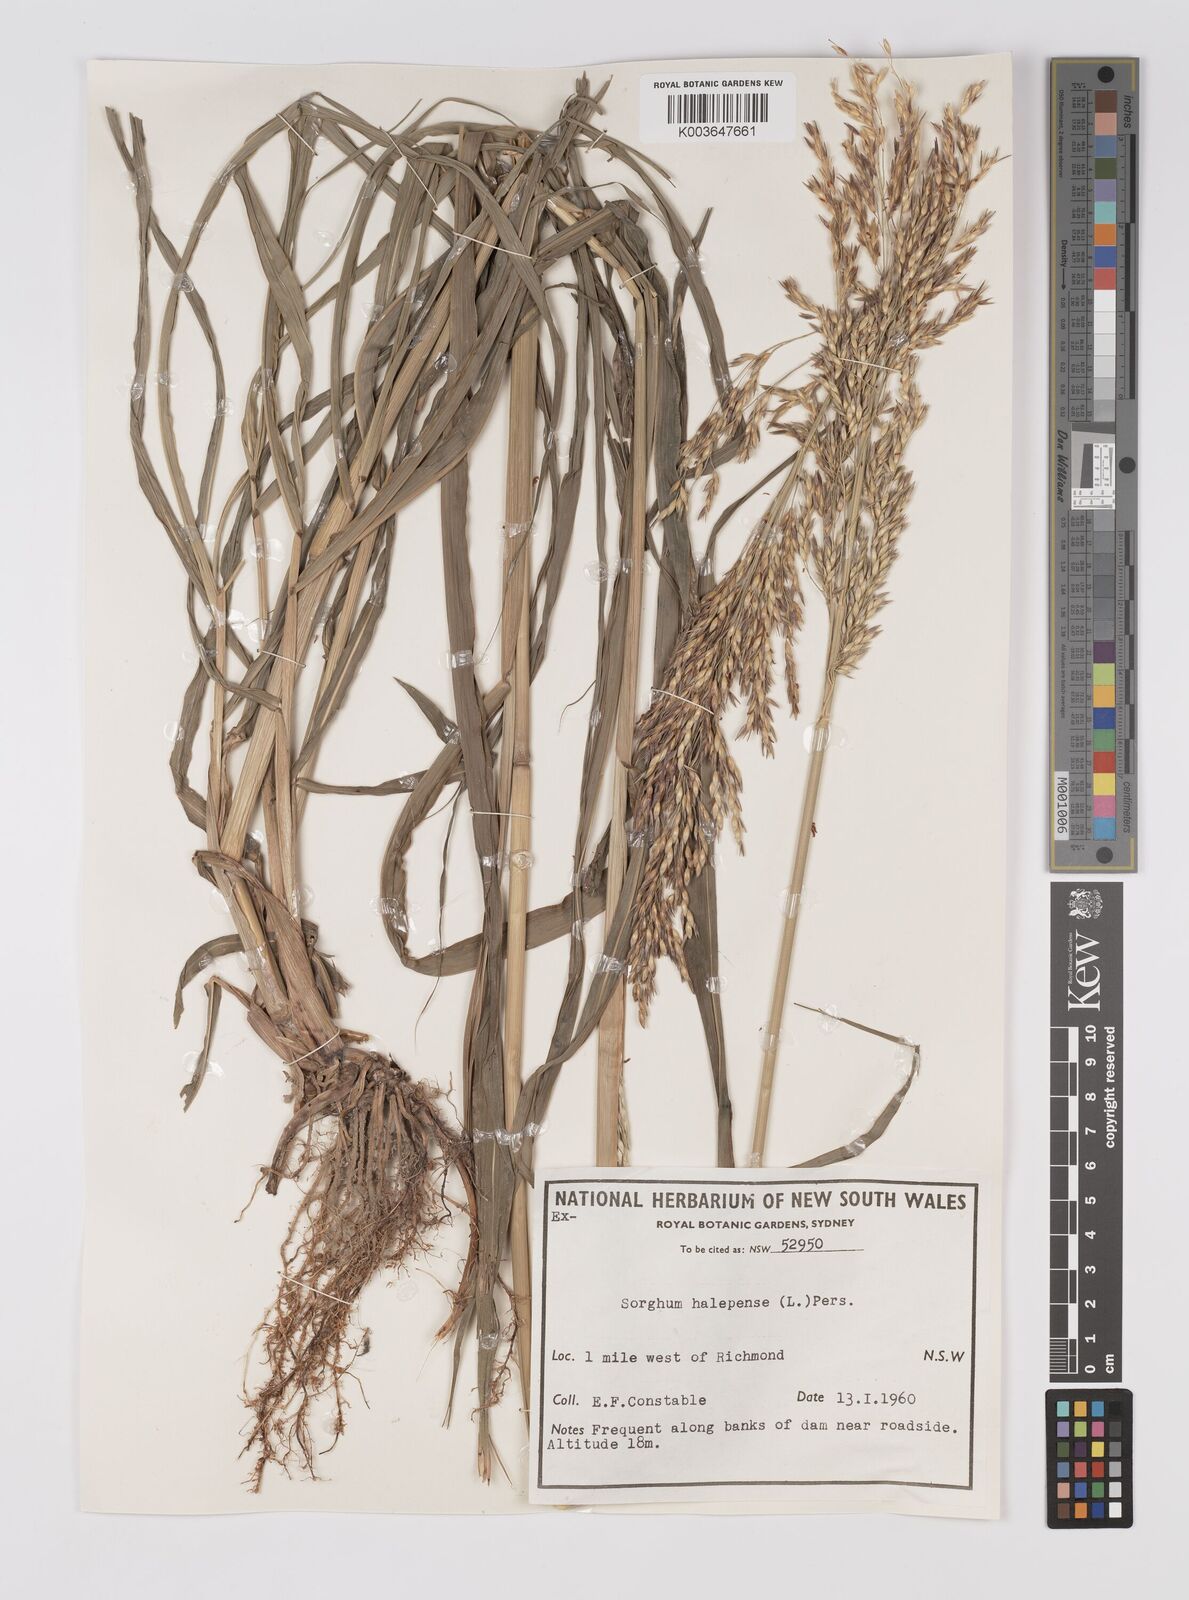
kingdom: Plantae
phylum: Tracheophyta
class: Liliopsida
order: Poales
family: Poaceae
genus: Sorghum
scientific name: Sorghum halepense
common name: Johnson-grass
